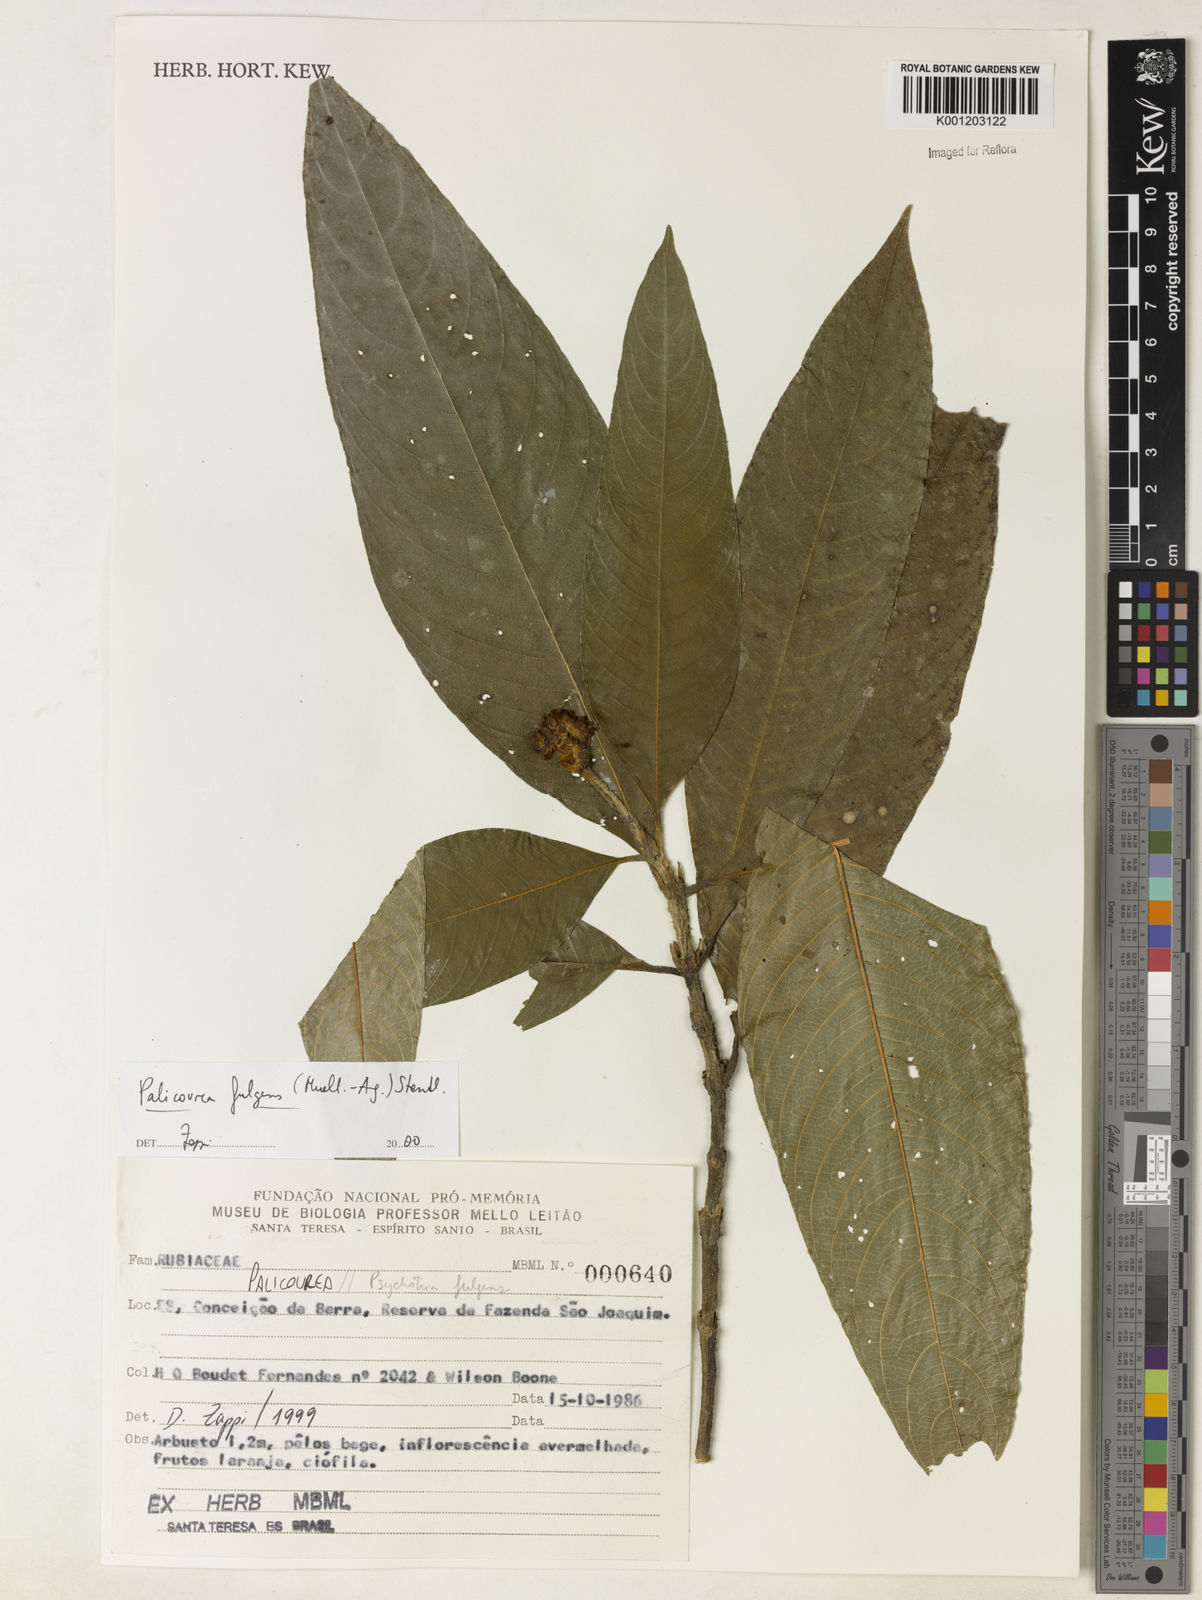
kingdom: Plantae
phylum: Tracheophyta
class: Magnoliopsida
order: Gentianales
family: Rubiaceae
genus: Palicourea
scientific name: Palicourea
